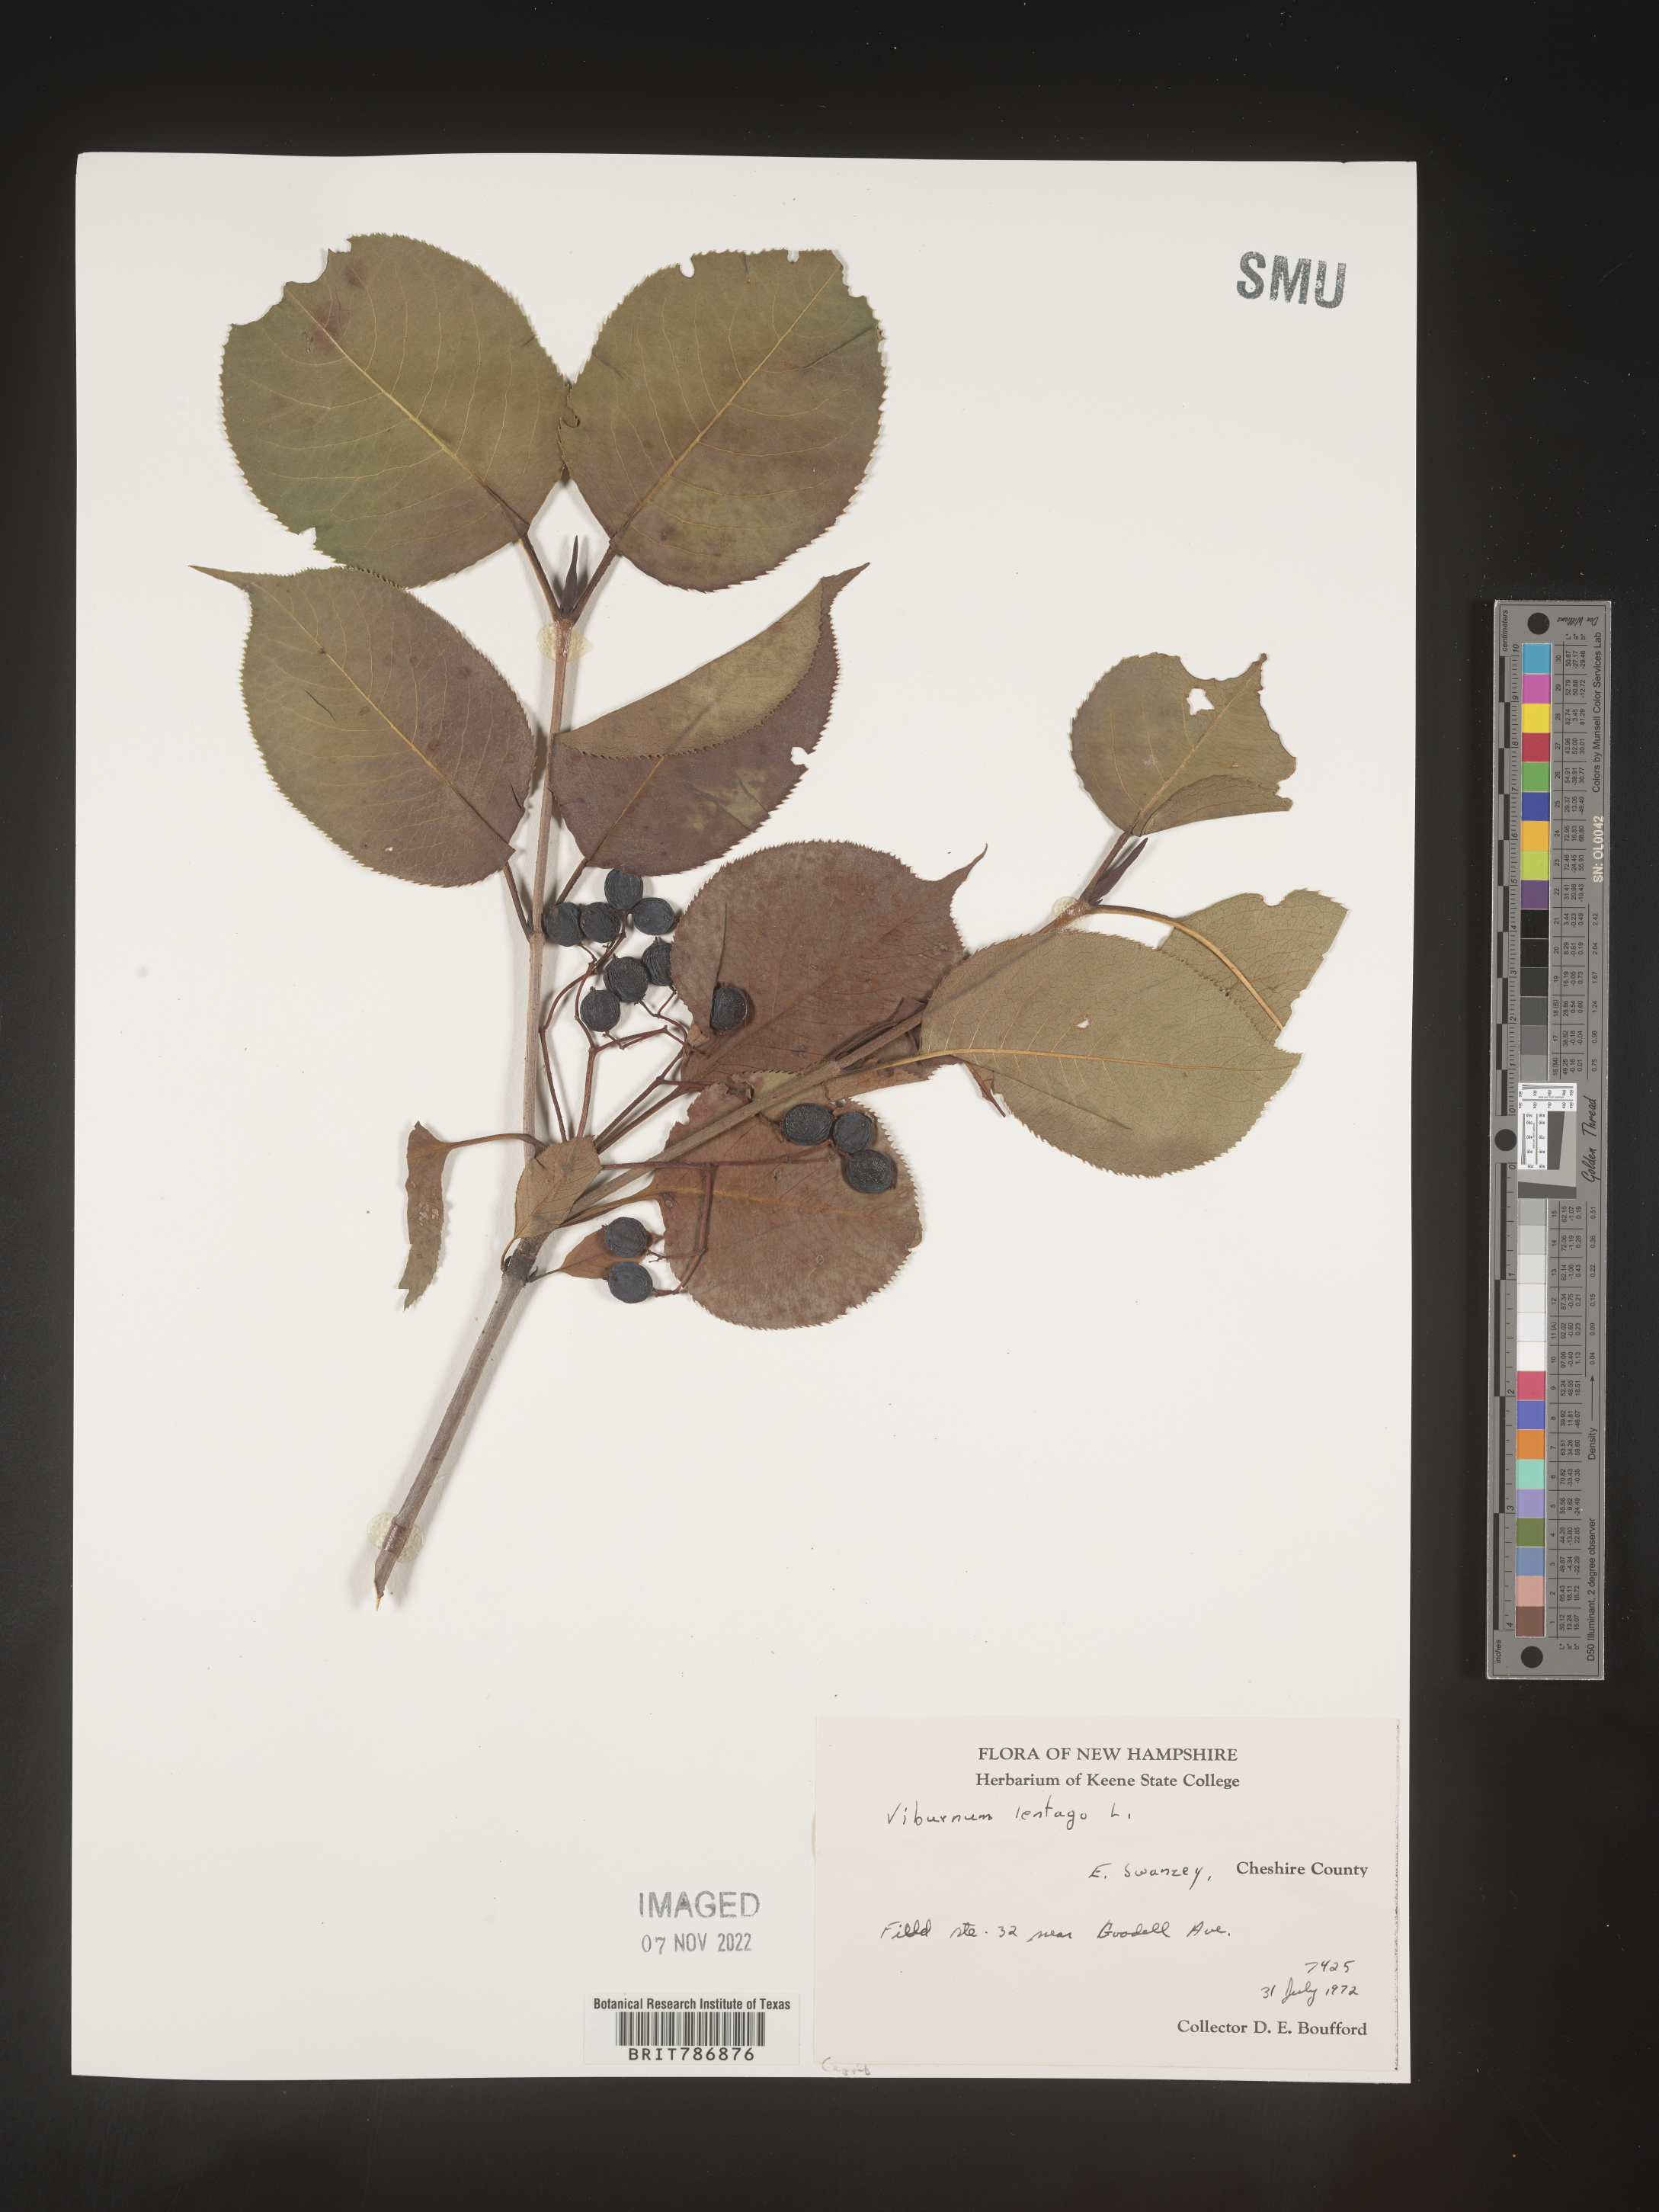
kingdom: Plantae
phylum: Tracheophyta
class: Magnoliopsida
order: Dipsacales
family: Viburnaceae
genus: Viburnum
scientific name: Viburnum lentago
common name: Black haw
